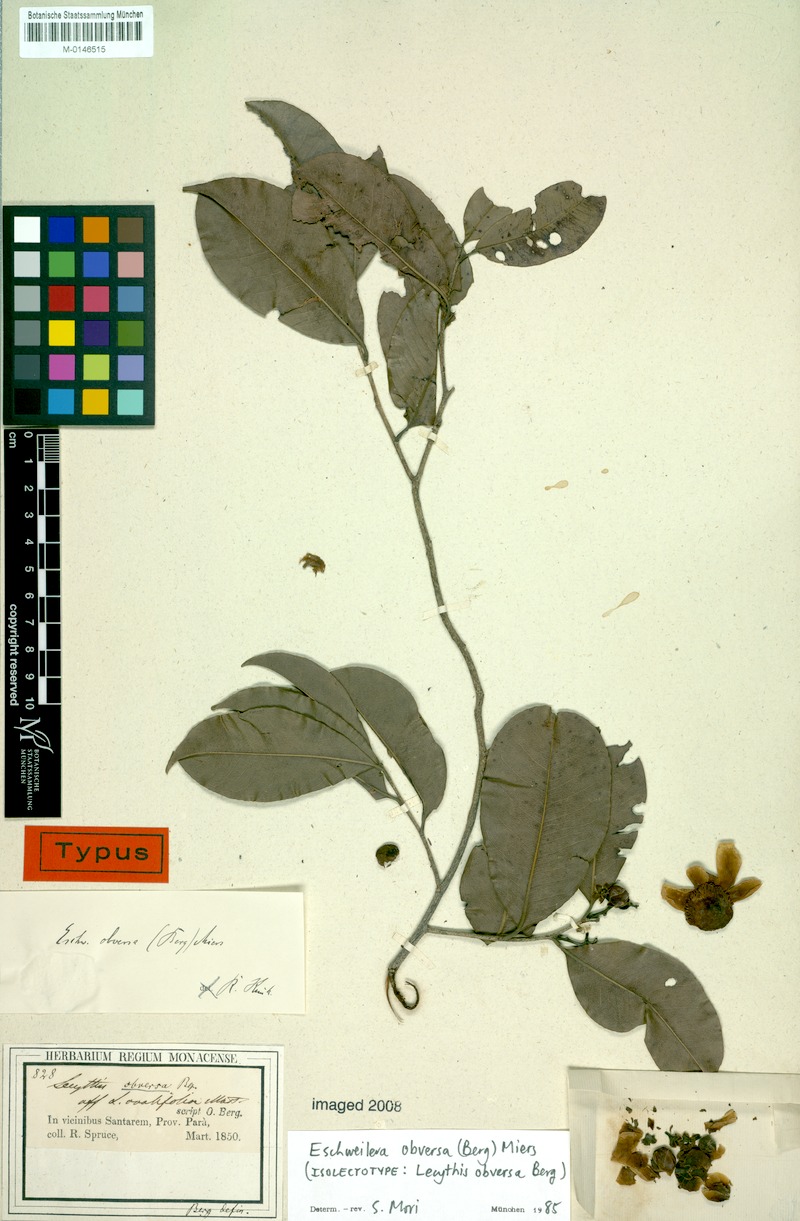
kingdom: Plantae
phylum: Tracheophyta
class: Magnoliopsida
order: Ericales
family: Lecythidaceae
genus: Eschweilera
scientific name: Eschweilera obversa
